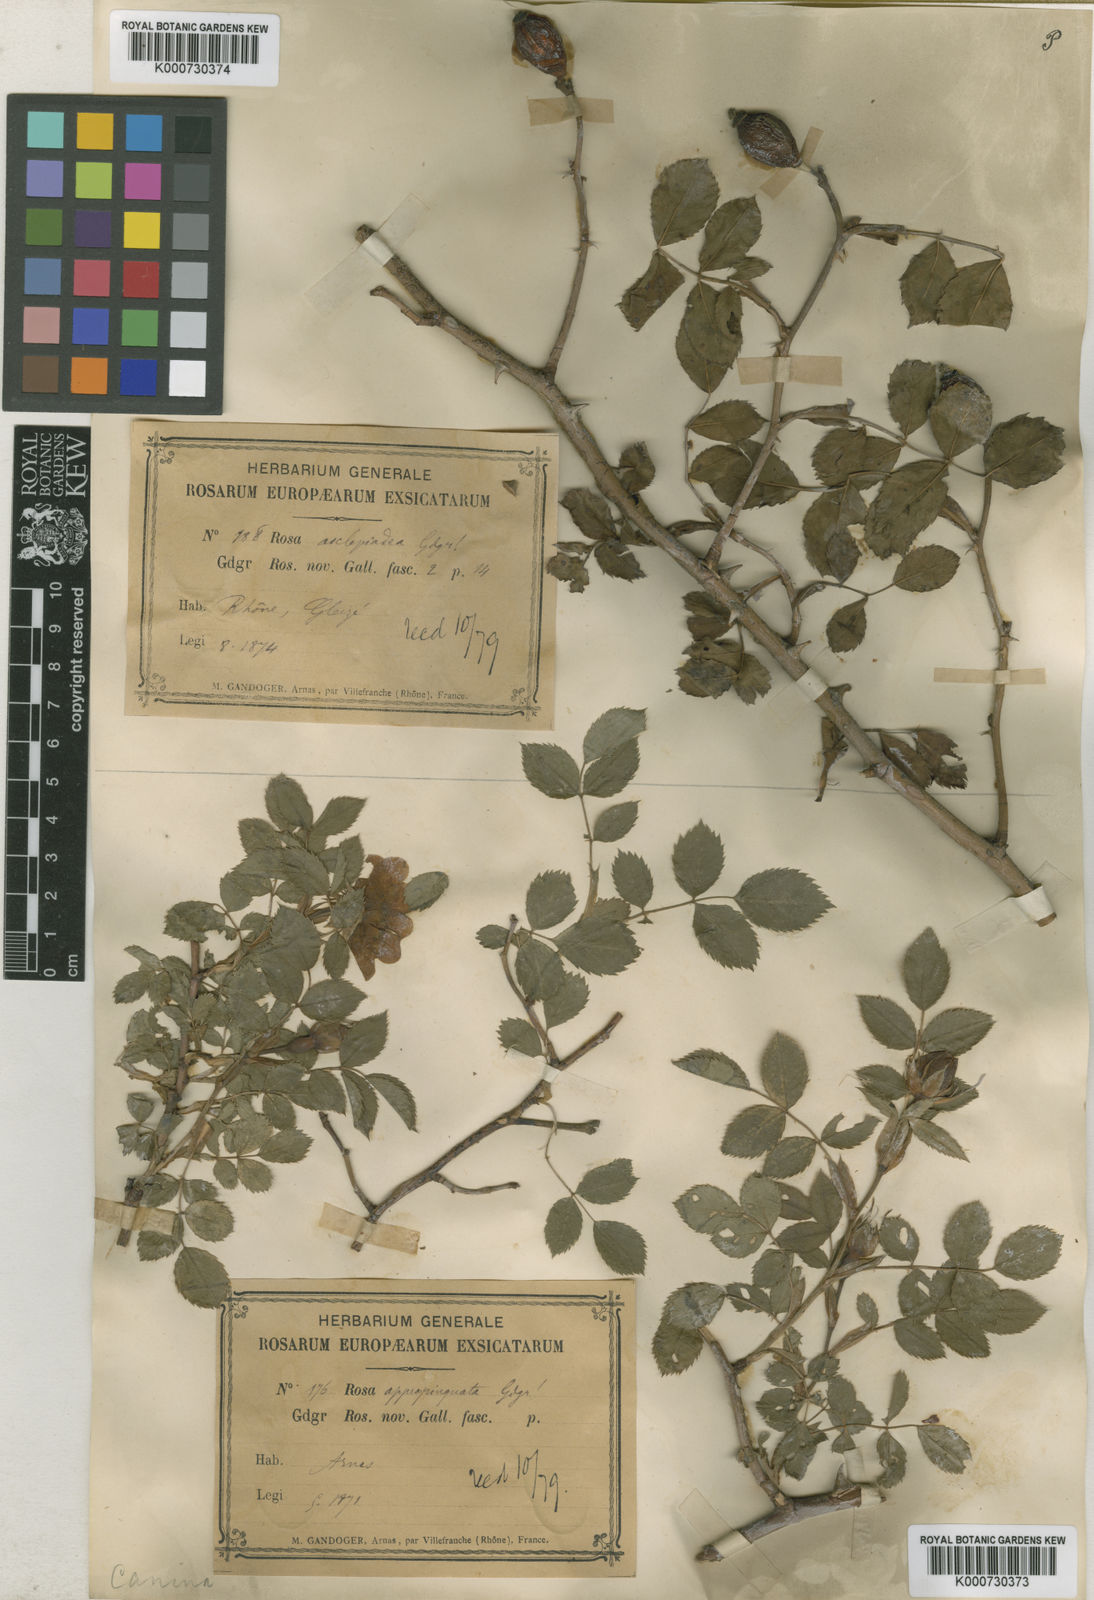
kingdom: Plantae
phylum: Tracheophyta
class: Magnoliopsida
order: Rosales
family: Rosaceae
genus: Rosa
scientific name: Rosa canina
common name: Dog rose
